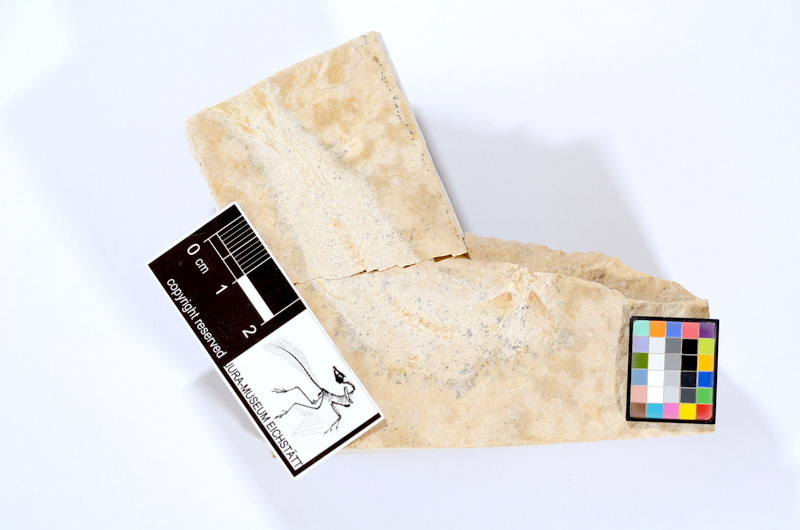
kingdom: Animalia
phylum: Chordata
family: Ascalaboidae
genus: Tharsis
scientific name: Tharsis dubius
